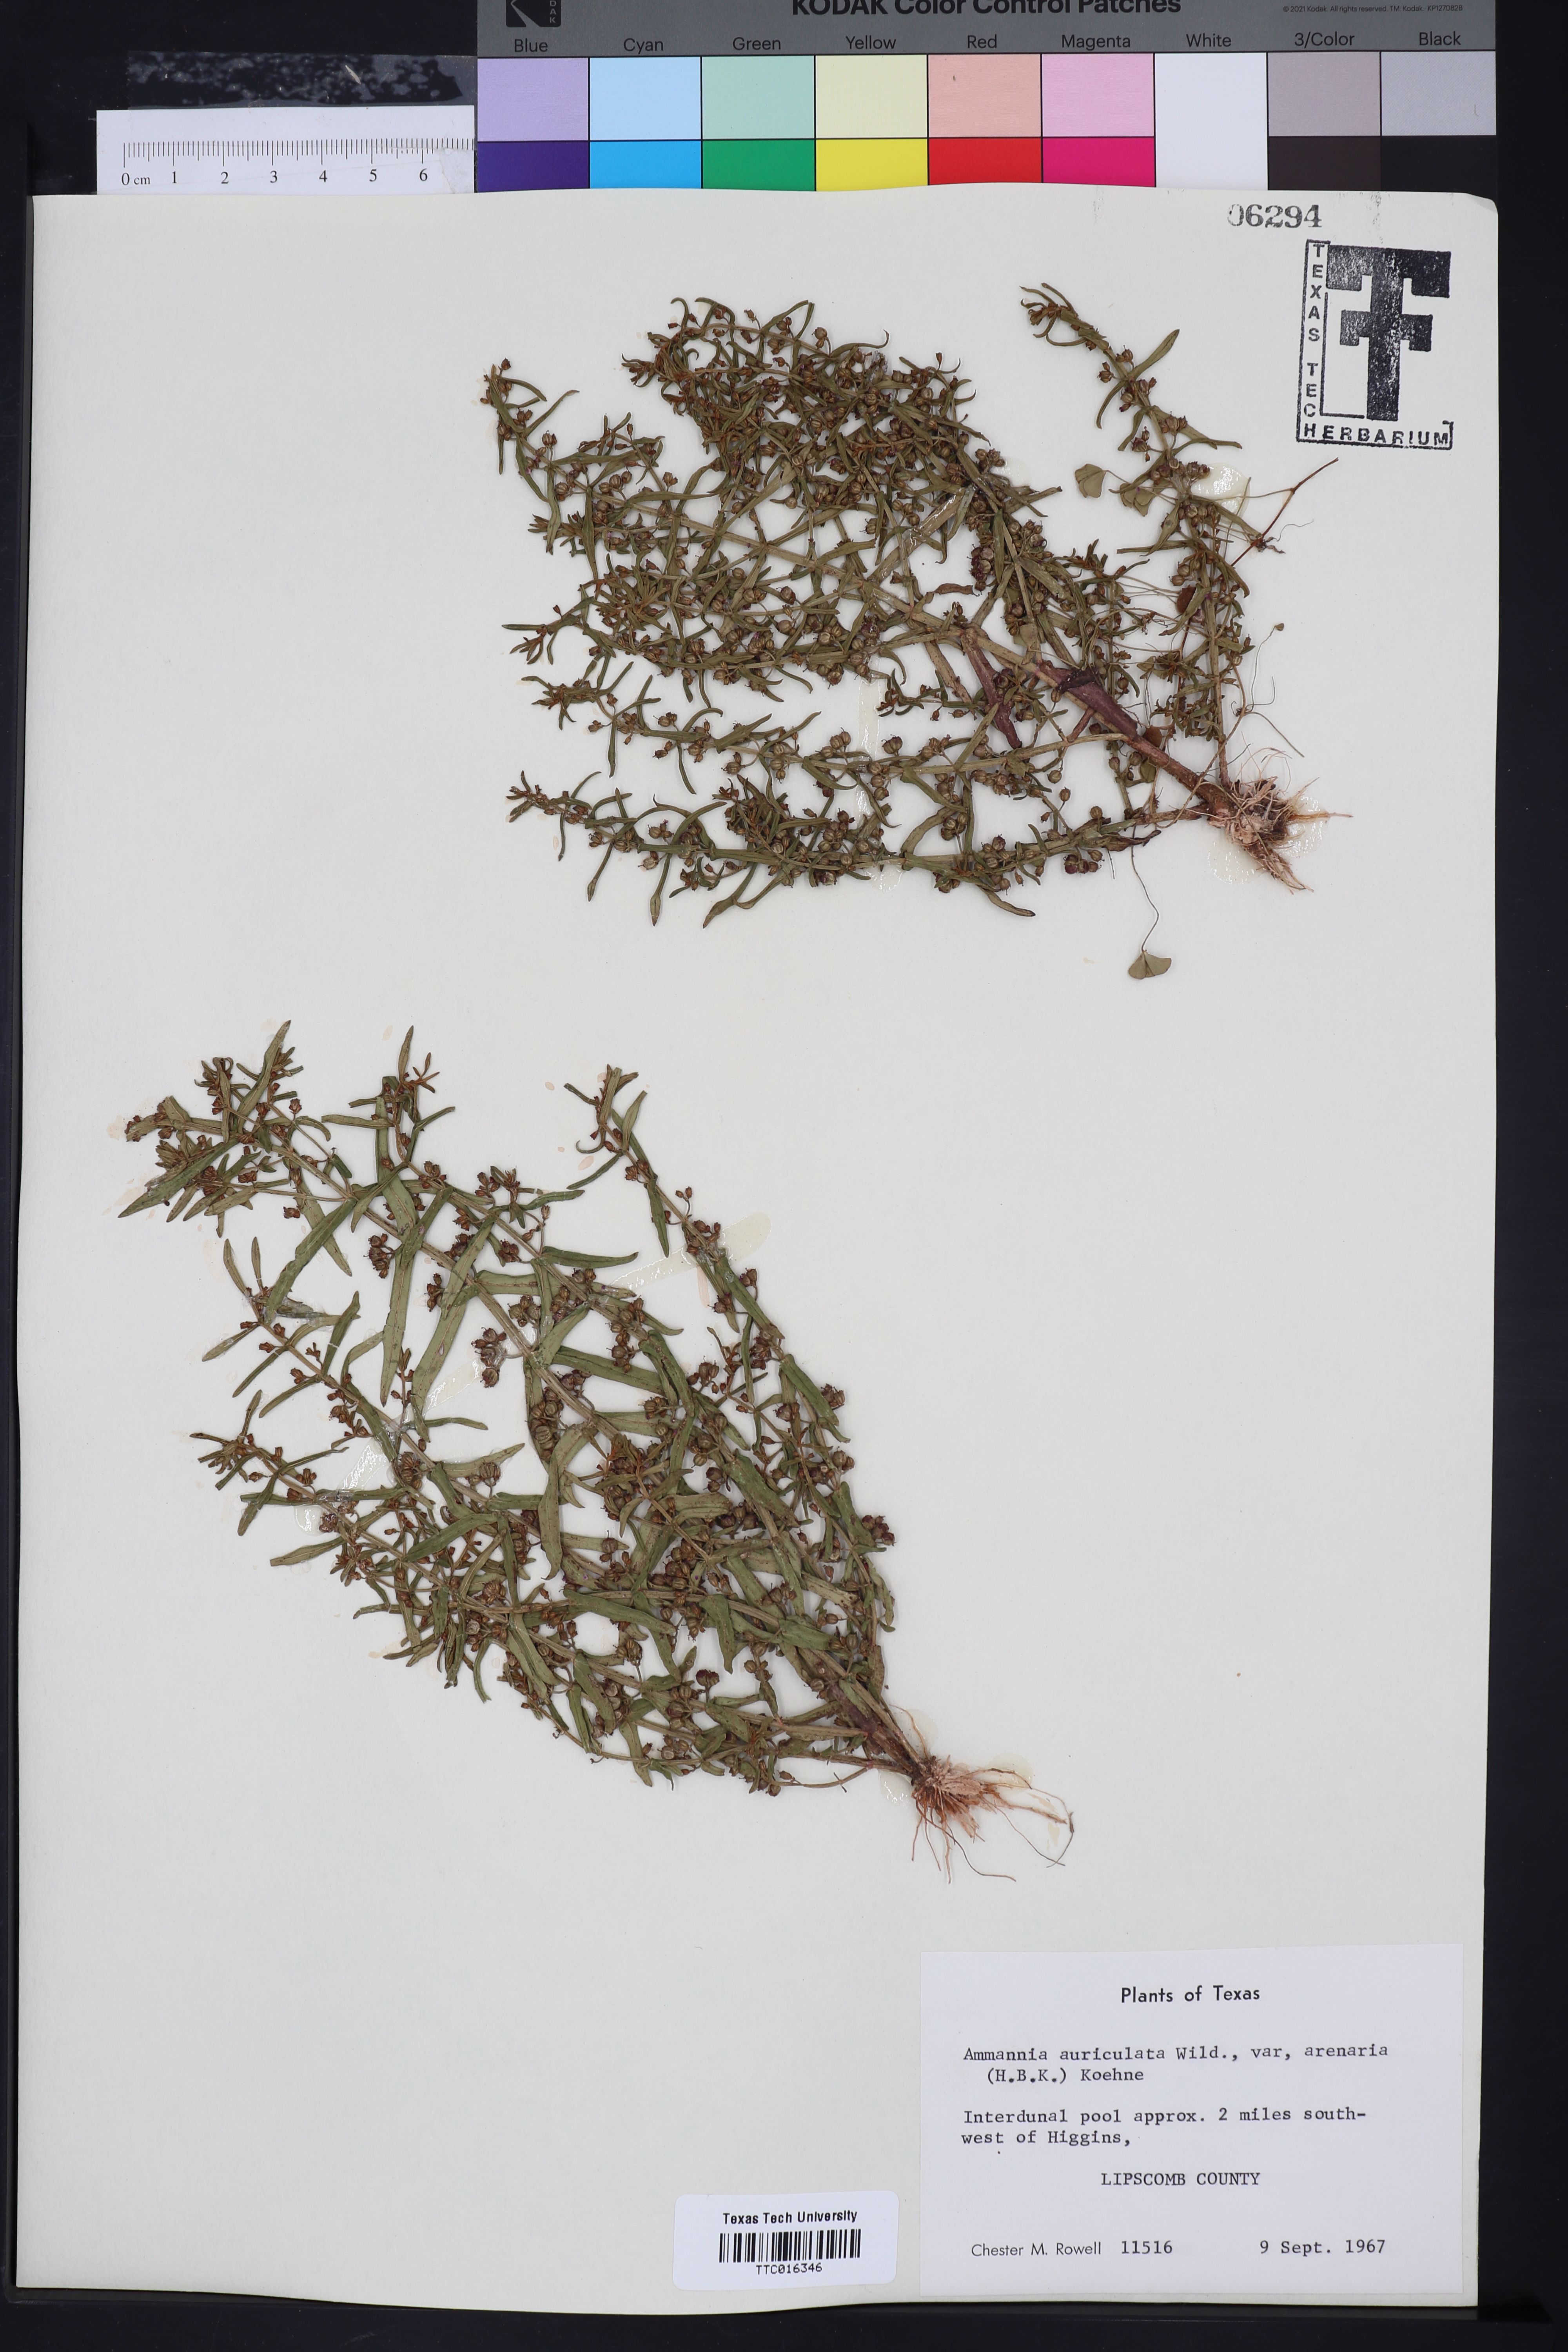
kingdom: Plantae
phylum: Tracheophyta
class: Magnoliopsida
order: Myrtales
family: Lythraceae
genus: Ammannia
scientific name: Ammannia auriculata
